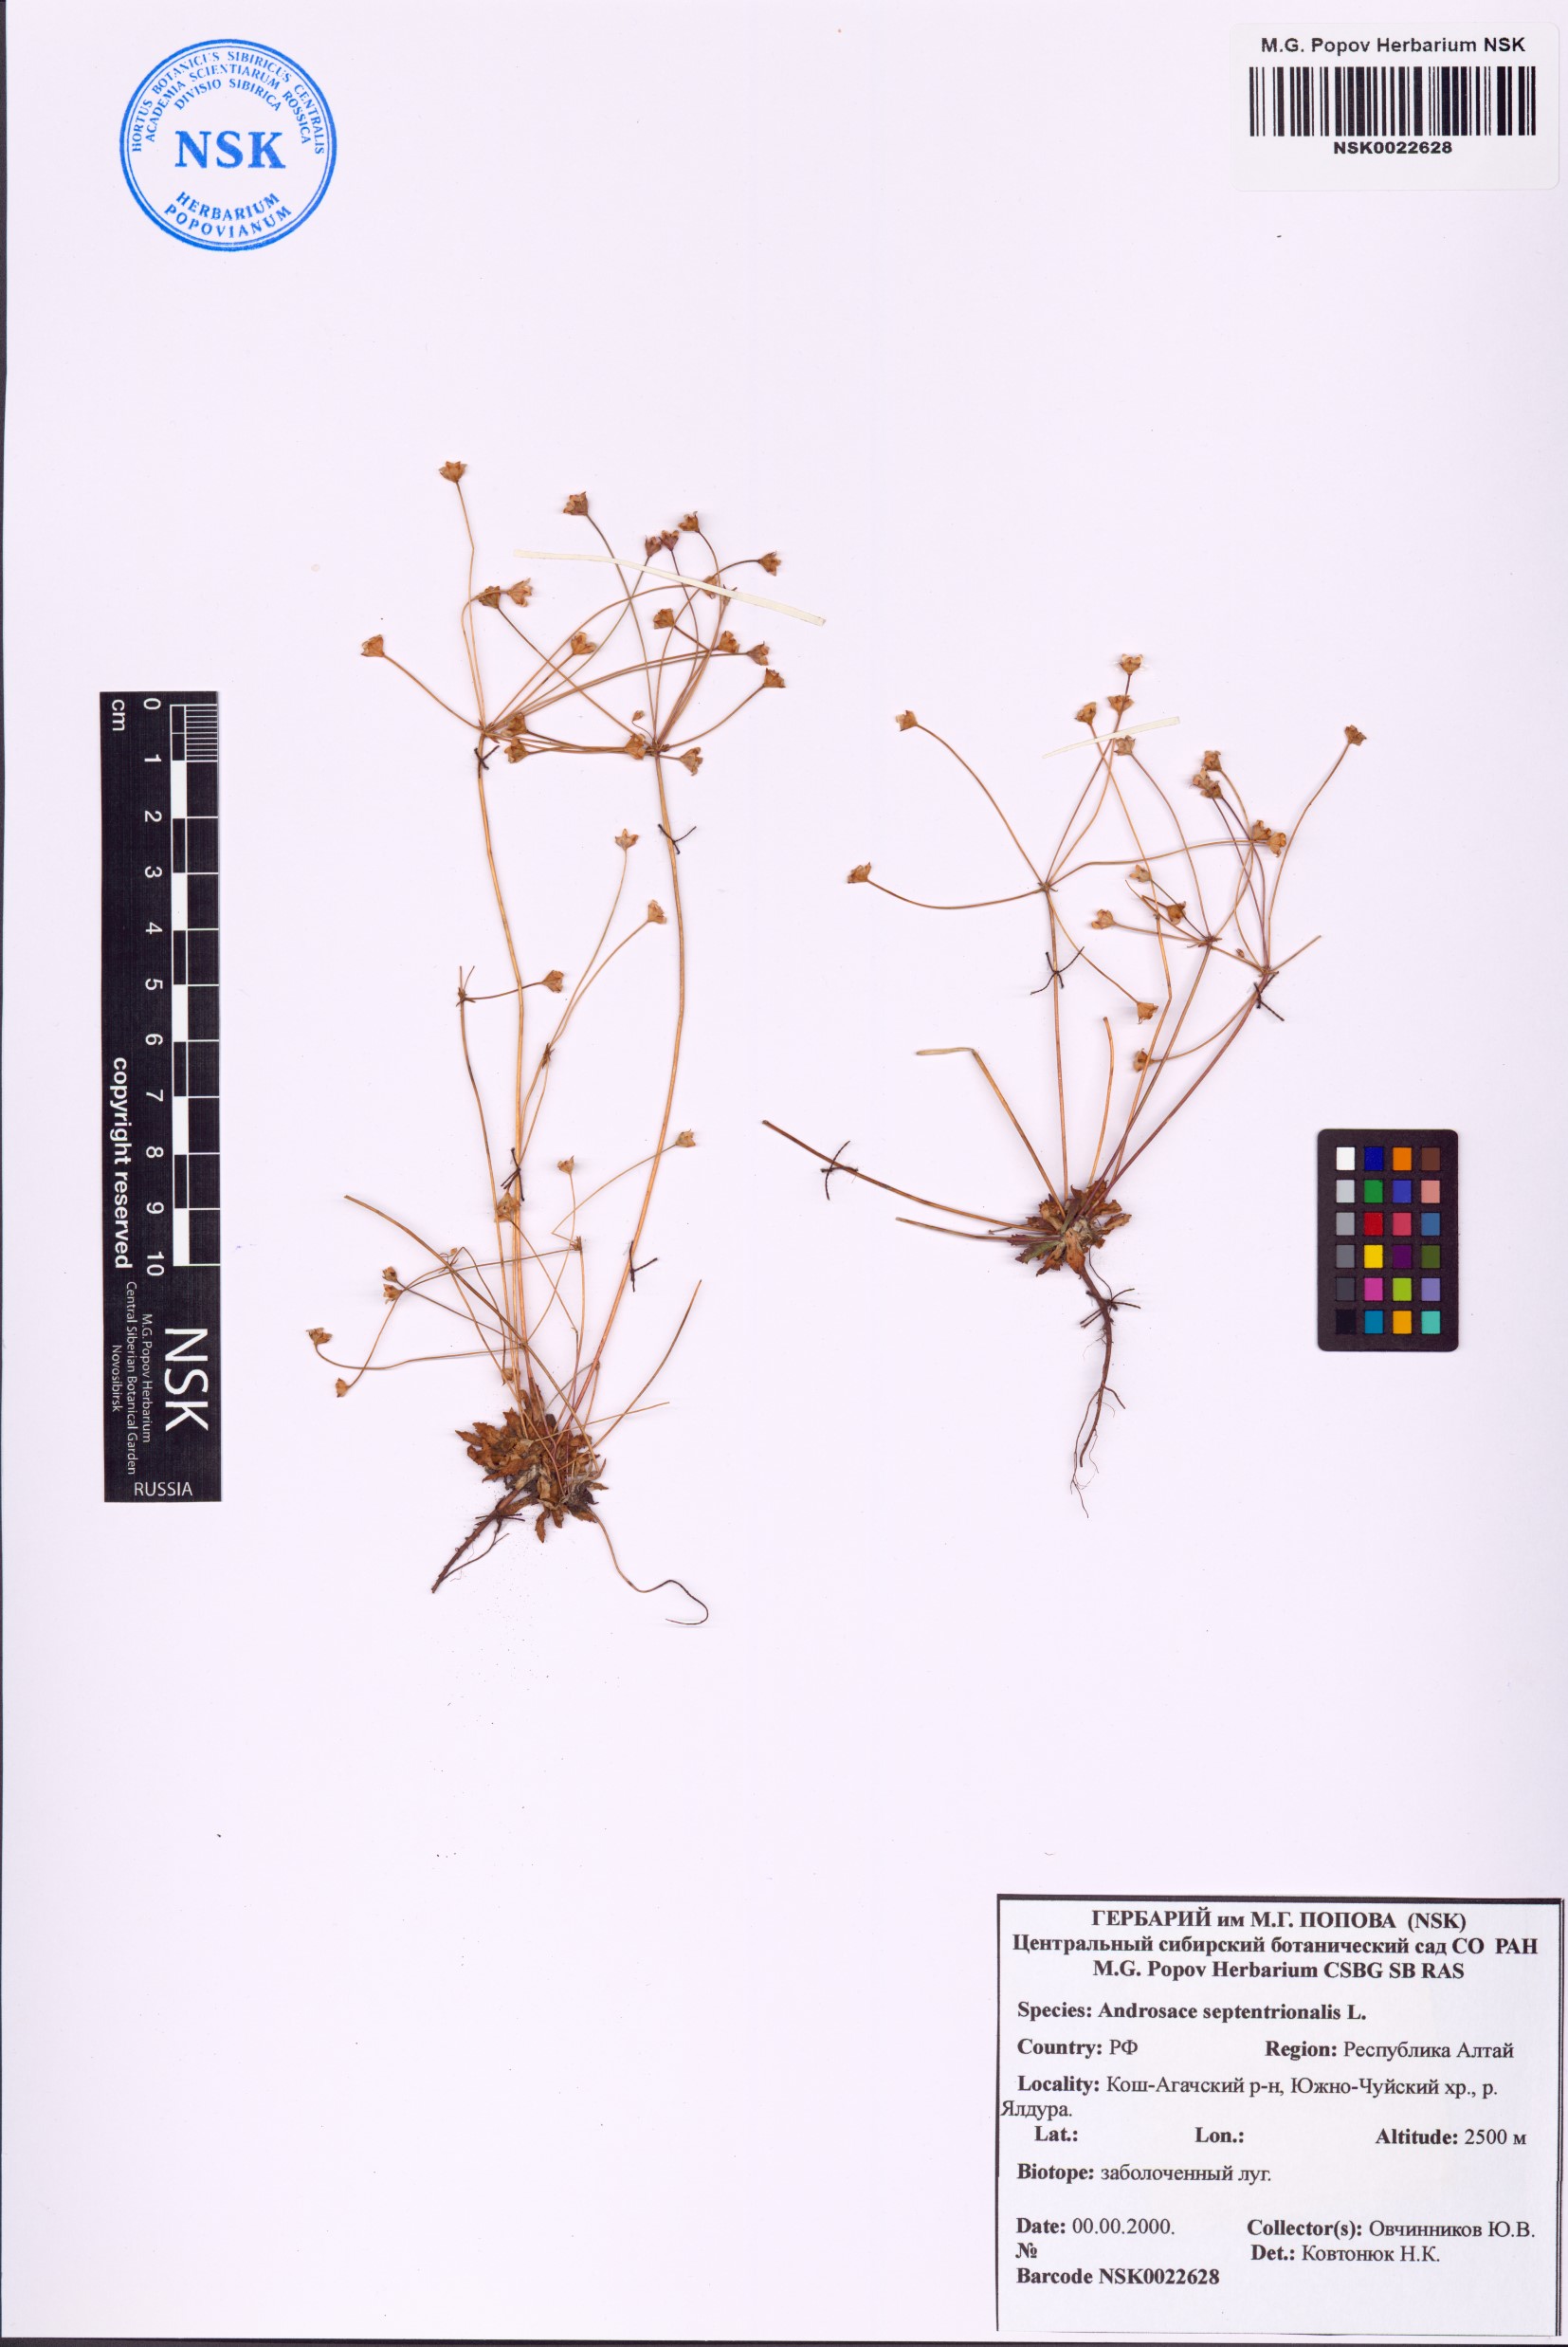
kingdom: Plantae
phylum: Tracheophyta
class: Magnoliopsida
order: Ericales
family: Primulaceae
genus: Androsace
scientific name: Androsace septentrionalis
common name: Hairy northern fairy-candelabra
